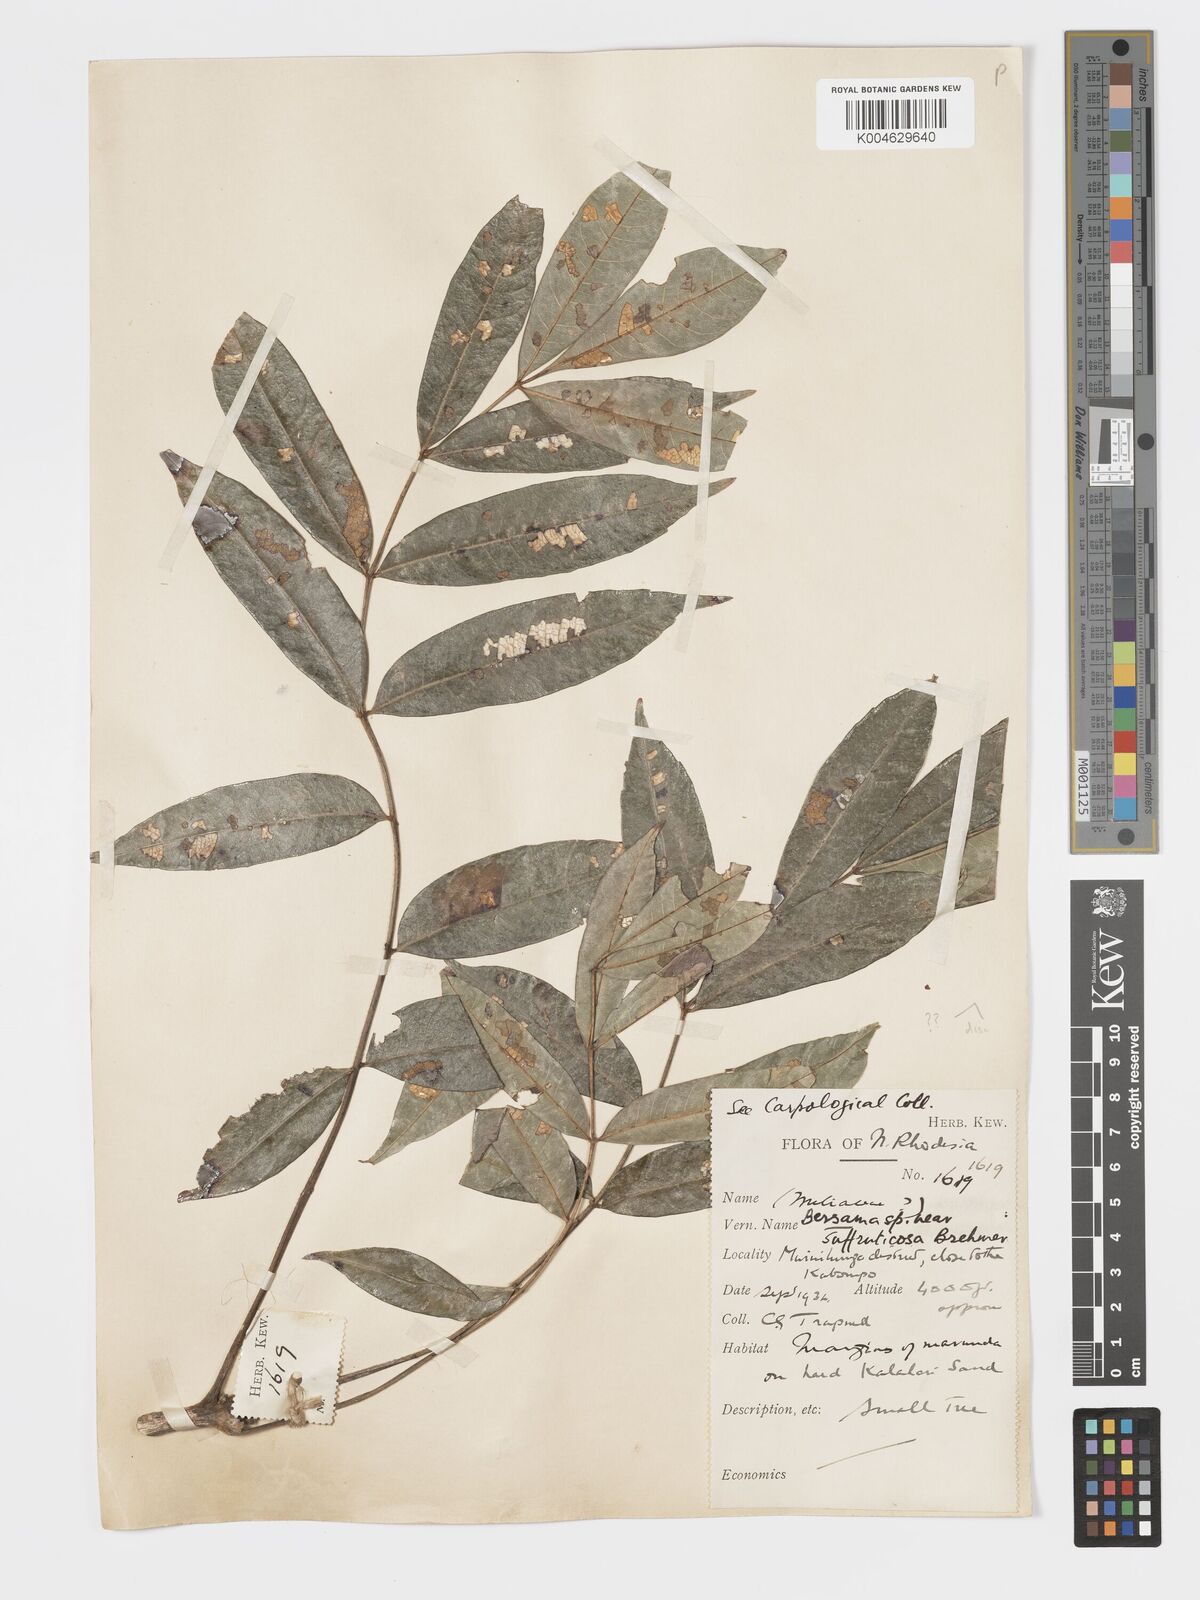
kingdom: Plantae
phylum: Tracheophyta
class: Magnoliopsida
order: Geraniales
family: Melianthaceae
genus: Bersama
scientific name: Bersama
